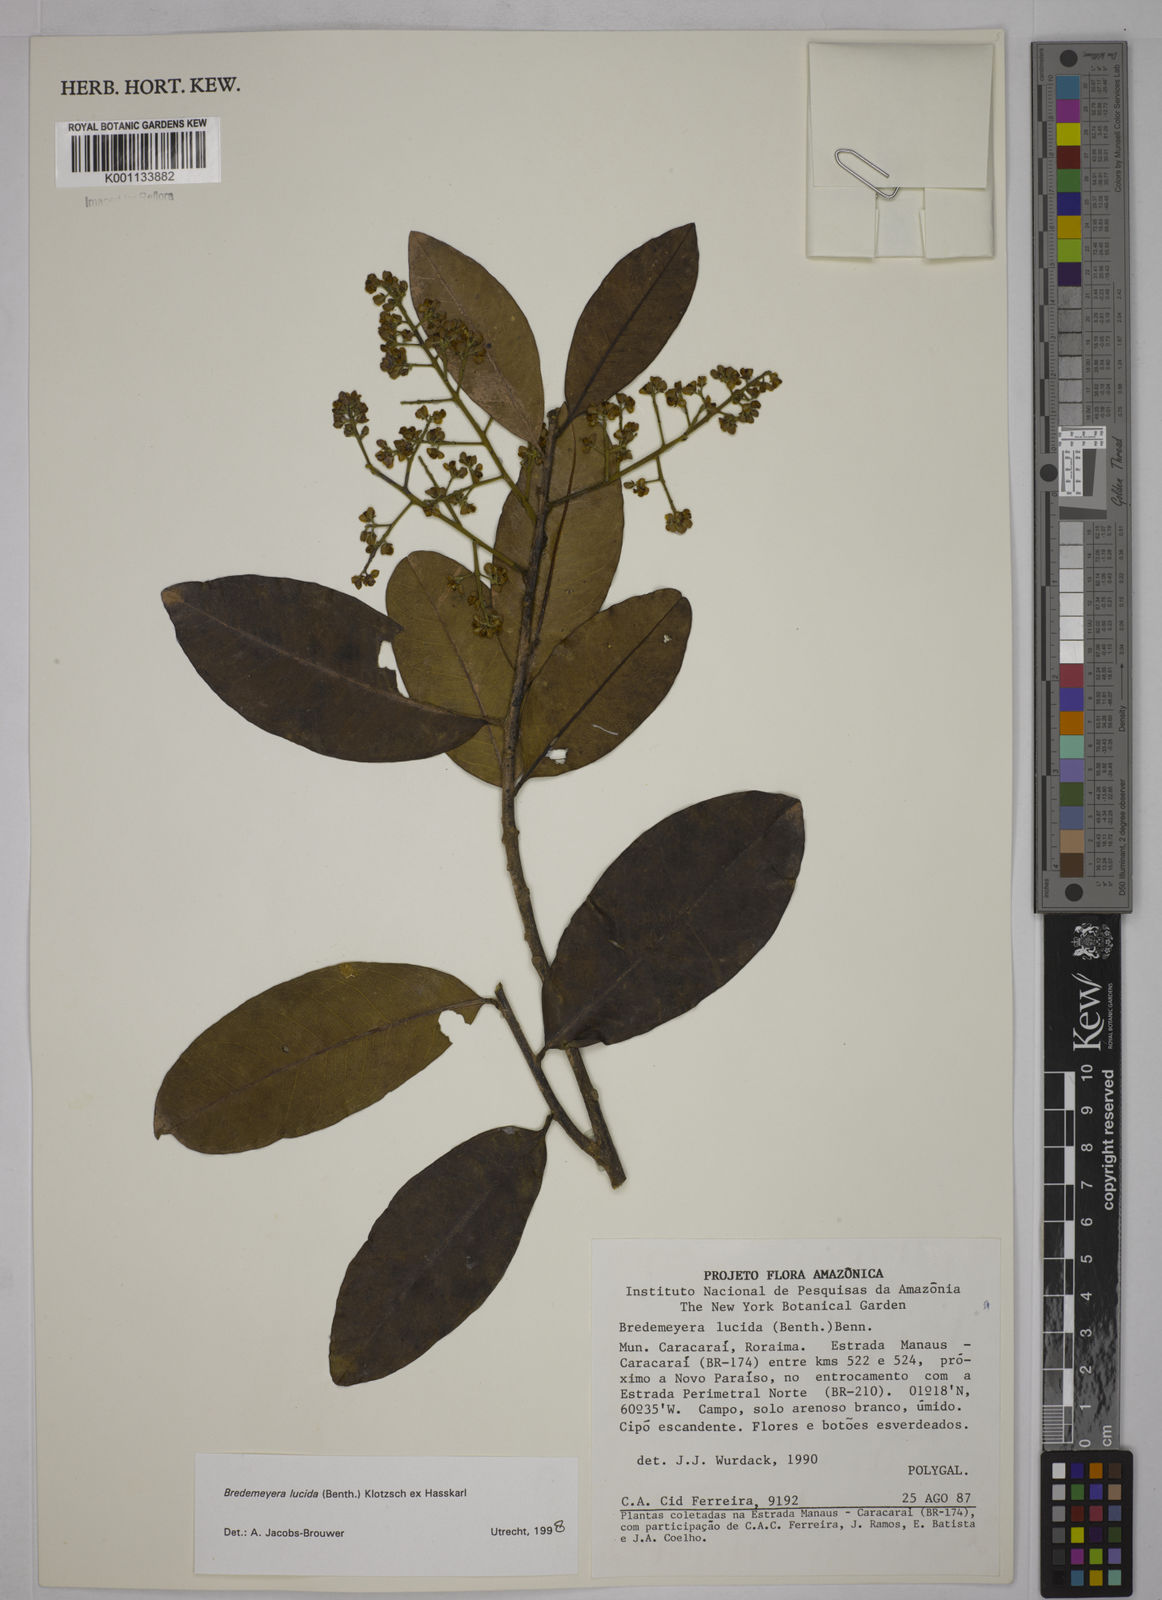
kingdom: Plantae
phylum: Tracheophyta
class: Magnoliopsida
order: Fabales
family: Polygalaceae
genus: Bredemeyera
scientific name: Bredemeyera lucida
